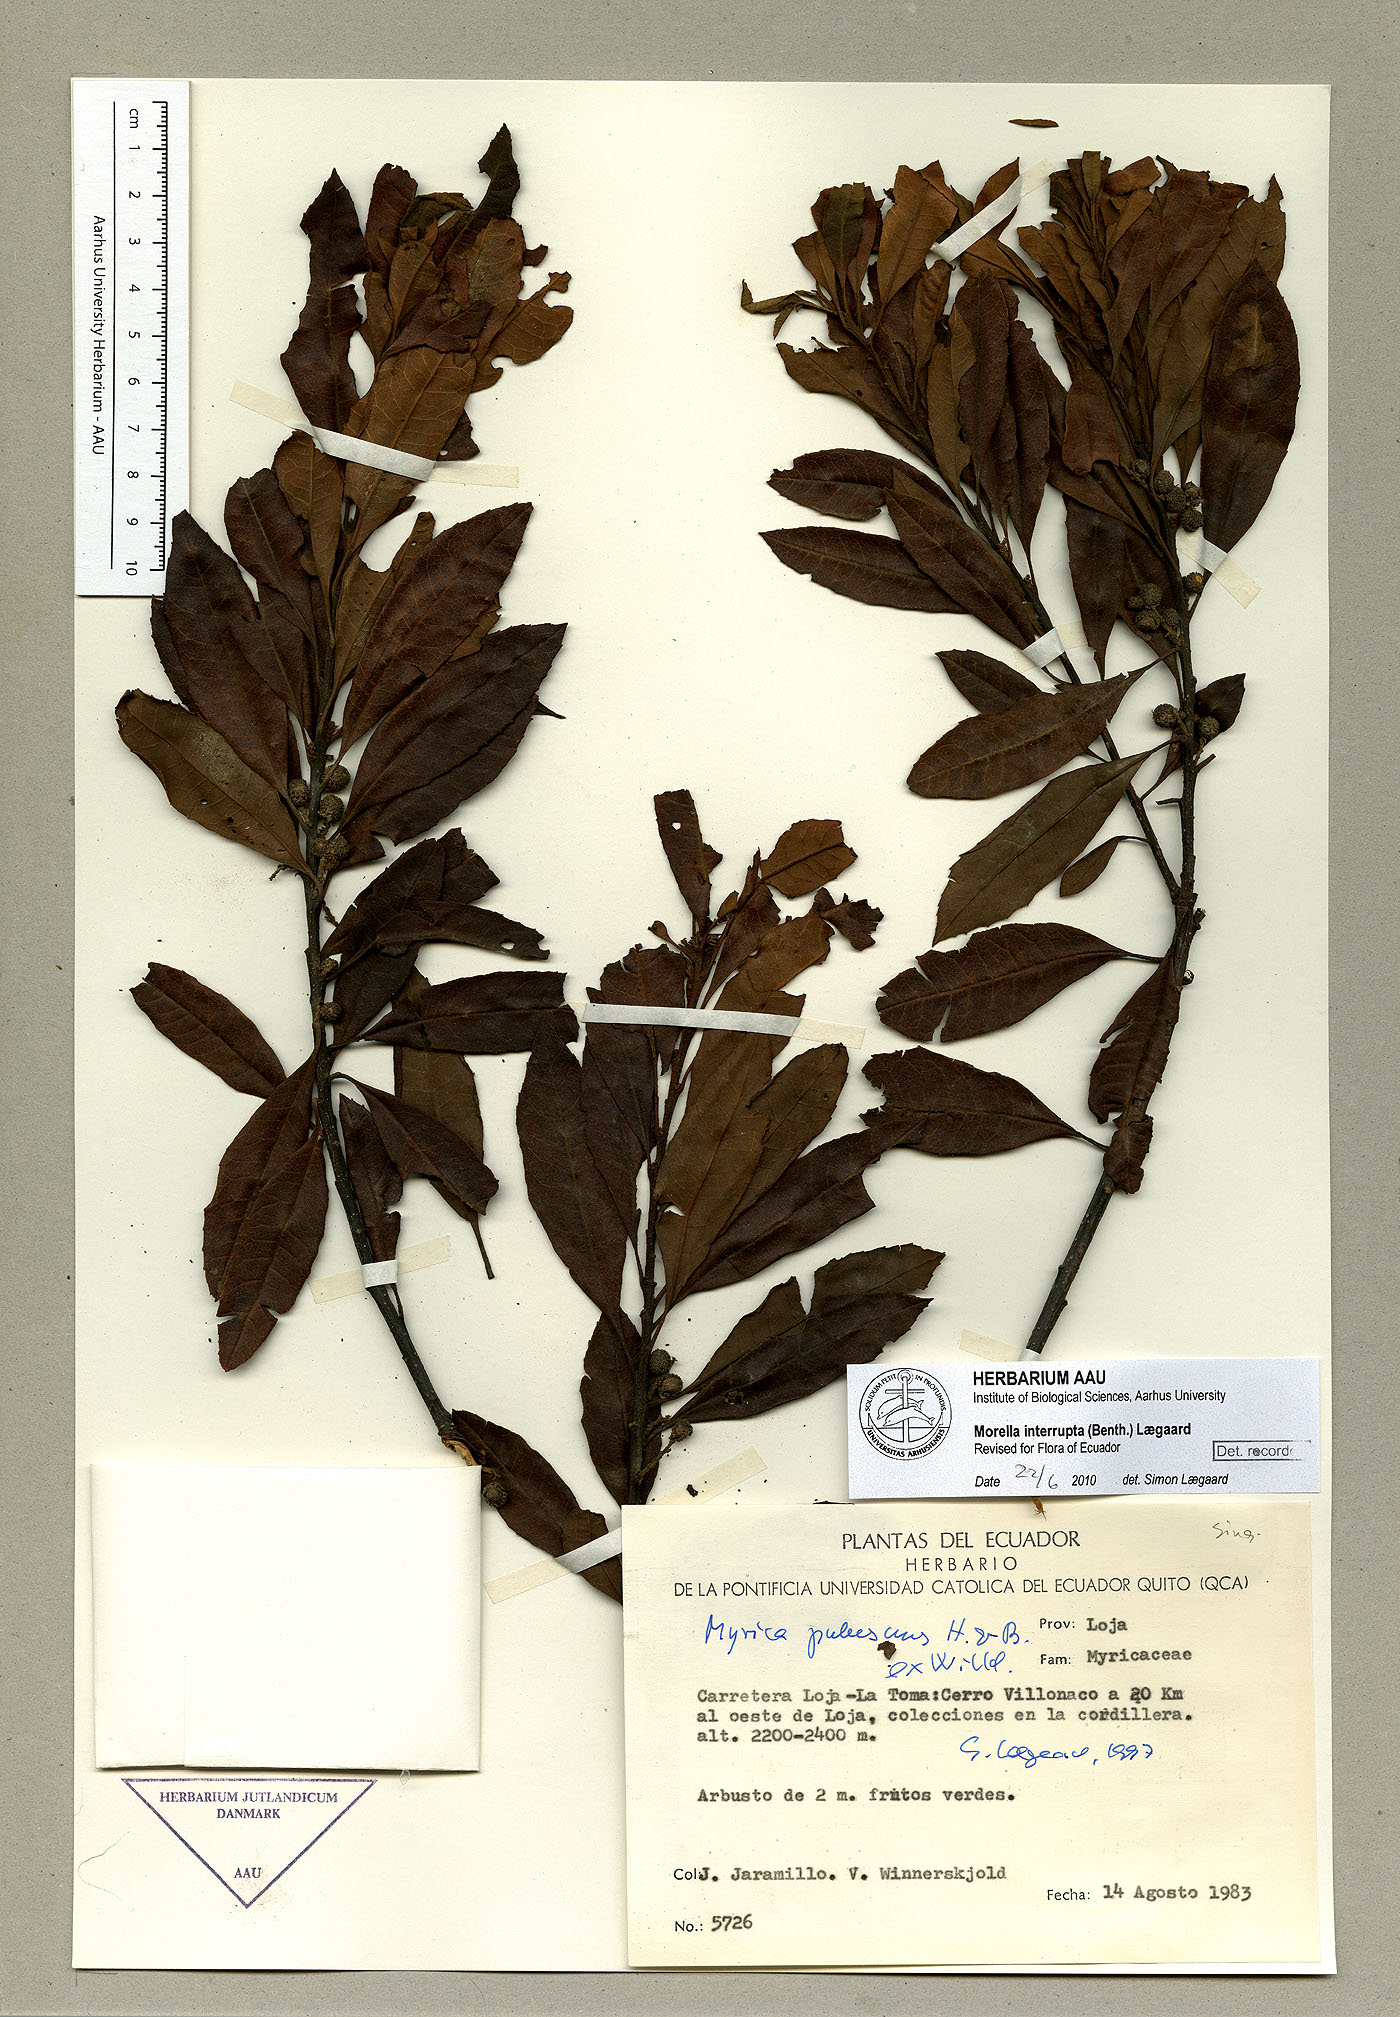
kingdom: Plantae
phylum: Tracheophyta
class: Magnoliopsida
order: Fagales
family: Myricaceae
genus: Morella
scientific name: Morella interrupta
